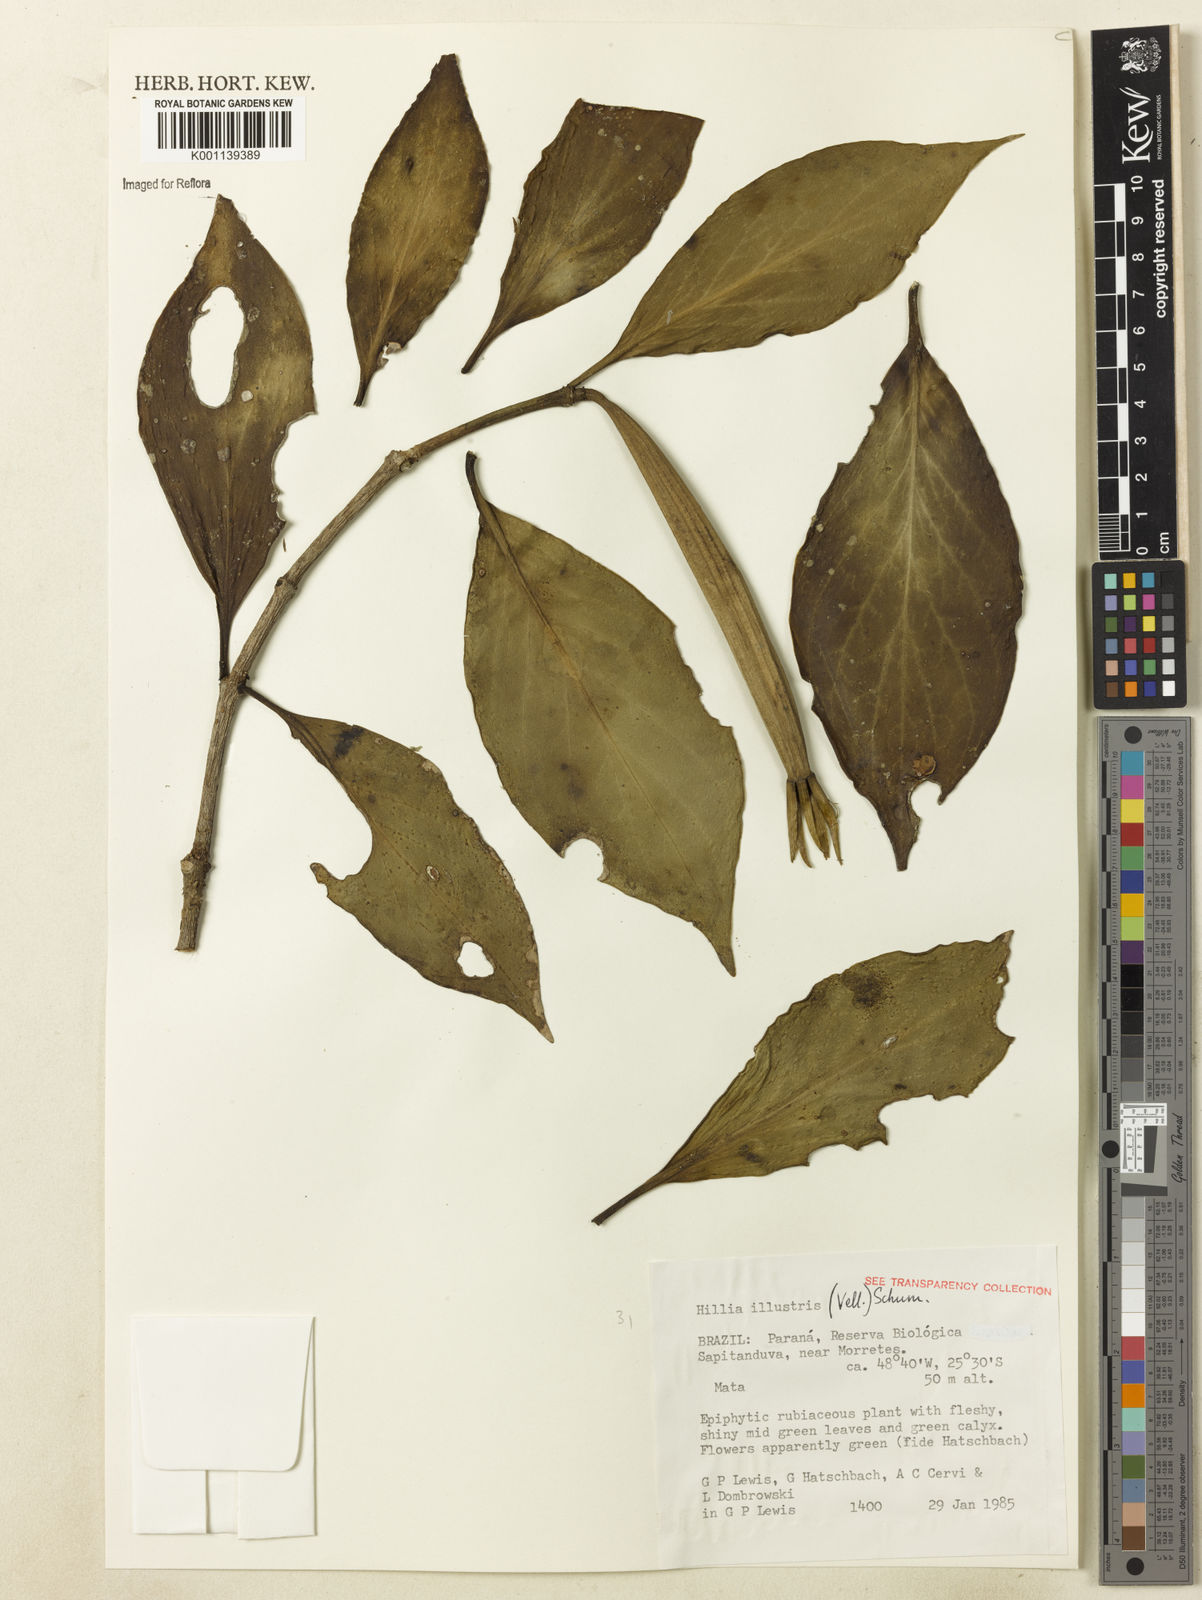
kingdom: Plantae
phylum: Tracheophyta
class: Magnoliopsida
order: Gentianales
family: Rubiaceae
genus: Hillia
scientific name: Hillia illustris
